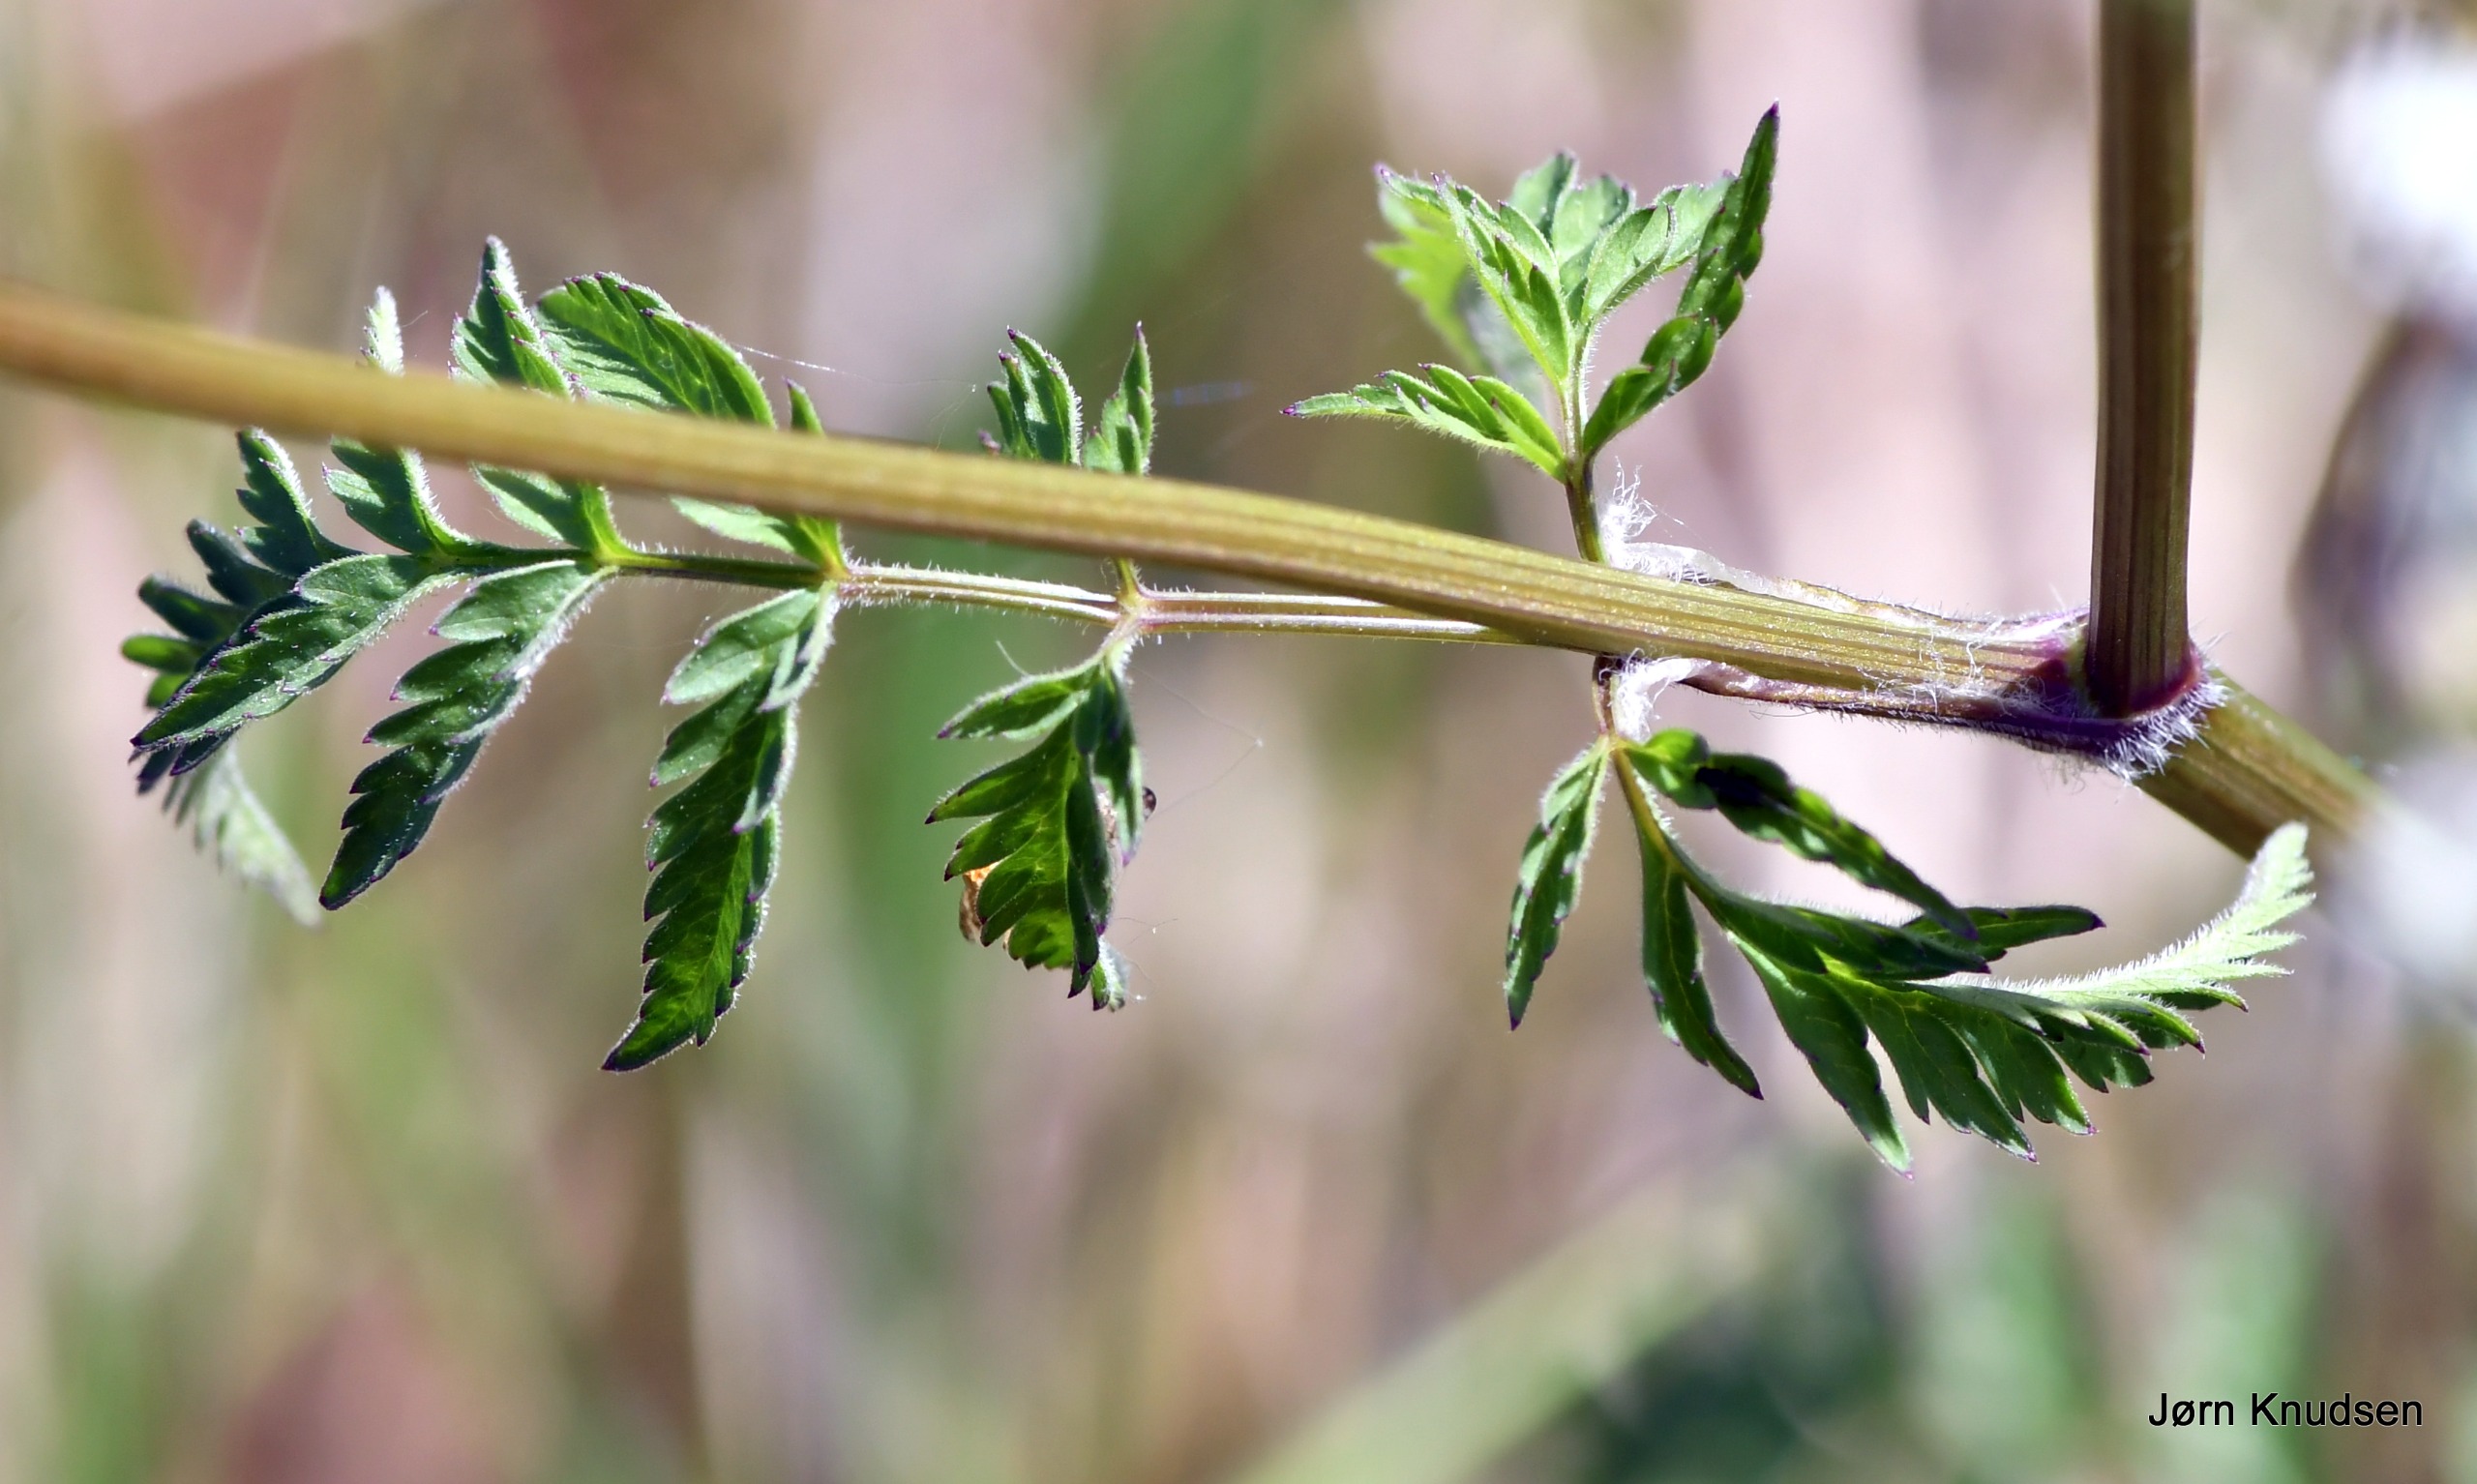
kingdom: Plantae
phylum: Tracheophyta
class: Magnoliopsida
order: Apiales
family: Apiaceae
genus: Anthriscus
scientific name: Anthriscus sylvestris
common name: Vild kørvel
